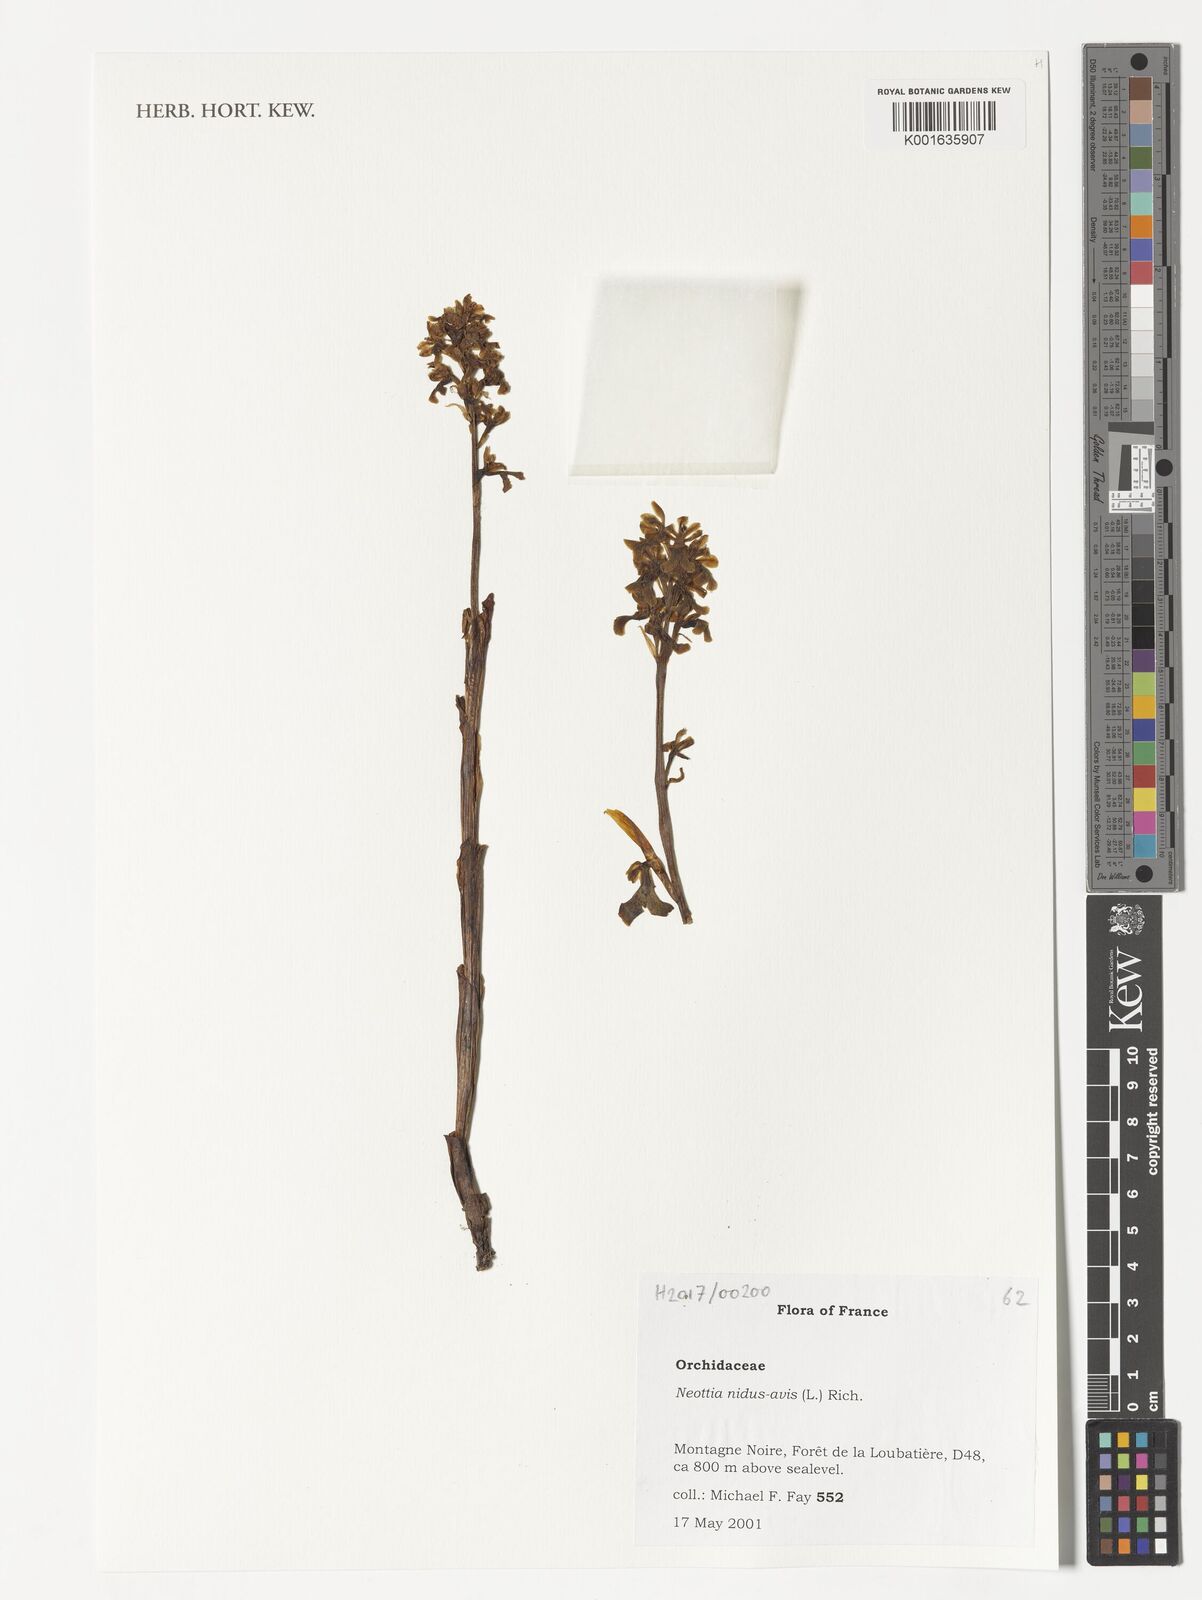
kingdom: Plantae
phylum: Tracheophyta
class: Liliopsida
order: Asparagales
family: Orchidaceae
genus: Neottia
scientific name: Neottia nidus-avis
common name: Bird's-nest orchid
